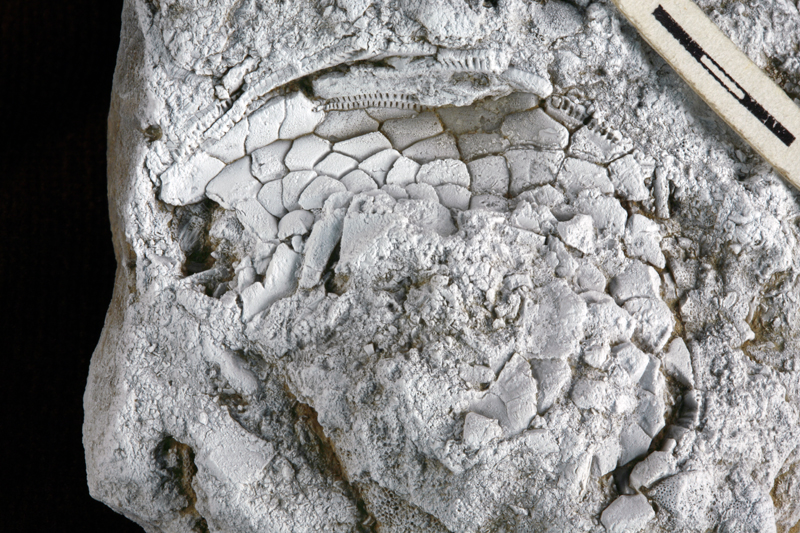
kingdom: Animalia
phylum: Echinodermata
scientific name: Echinodermata
